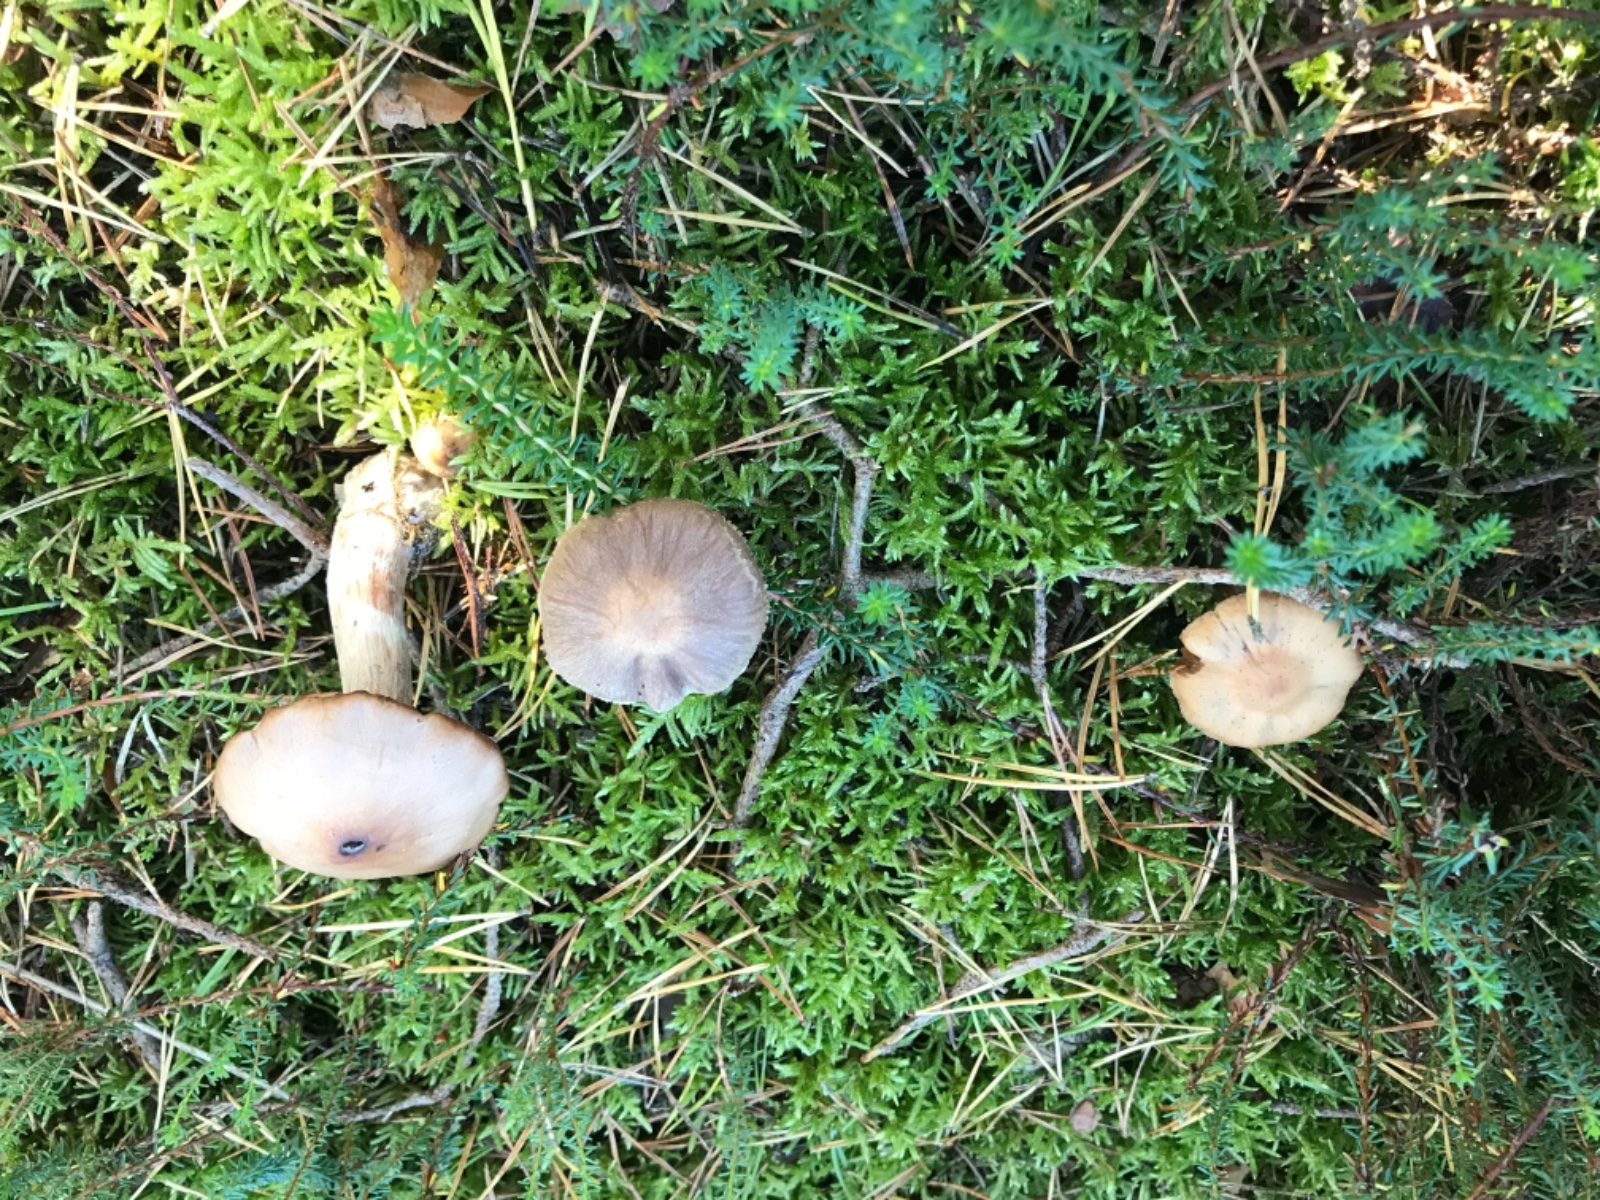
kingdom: Fungi
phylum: Basidiomycota
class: Agaricomycetes
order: Agaricales
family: Cortinariaceae
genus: Cortinarius
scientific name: Cortinarius malachius
